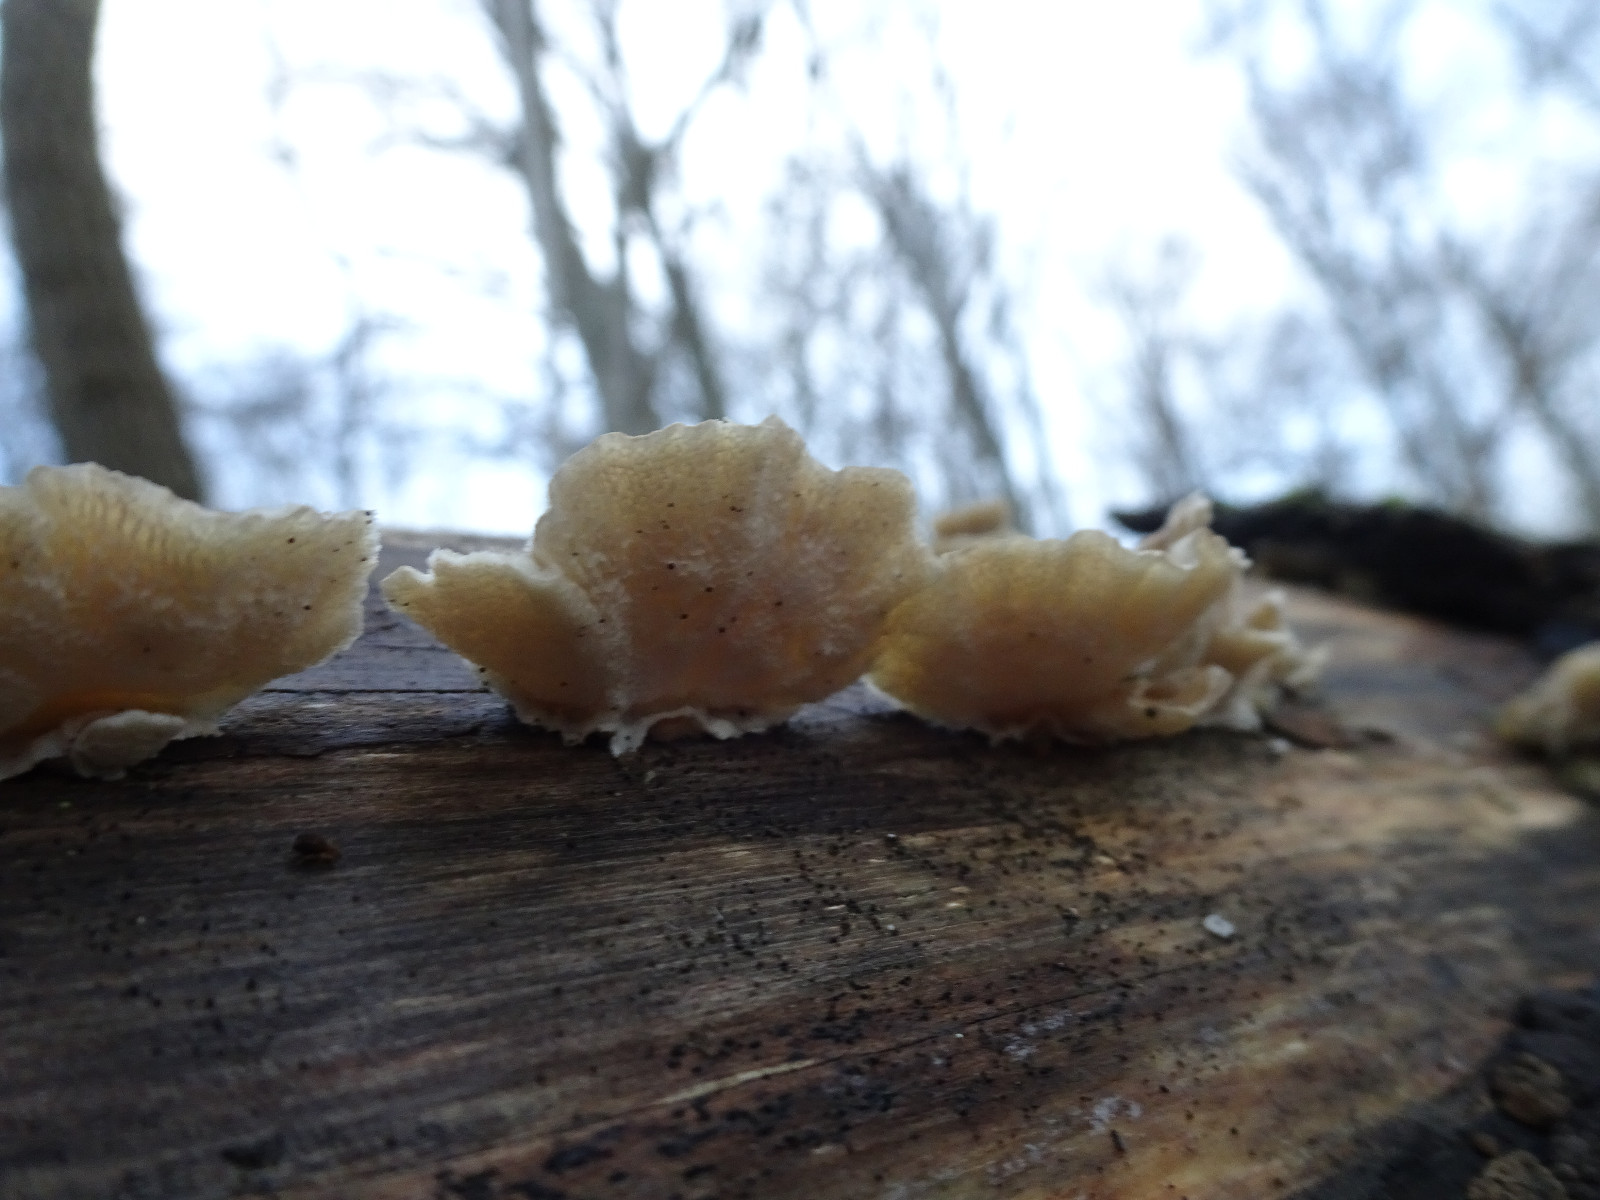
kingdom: Fungi
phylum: Basidiomycota
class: Agaricomycetes
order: Polyporales
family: Polyporaceae
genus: Trametes
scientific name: Trametes hirsuta
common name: håret læderporesvamp
